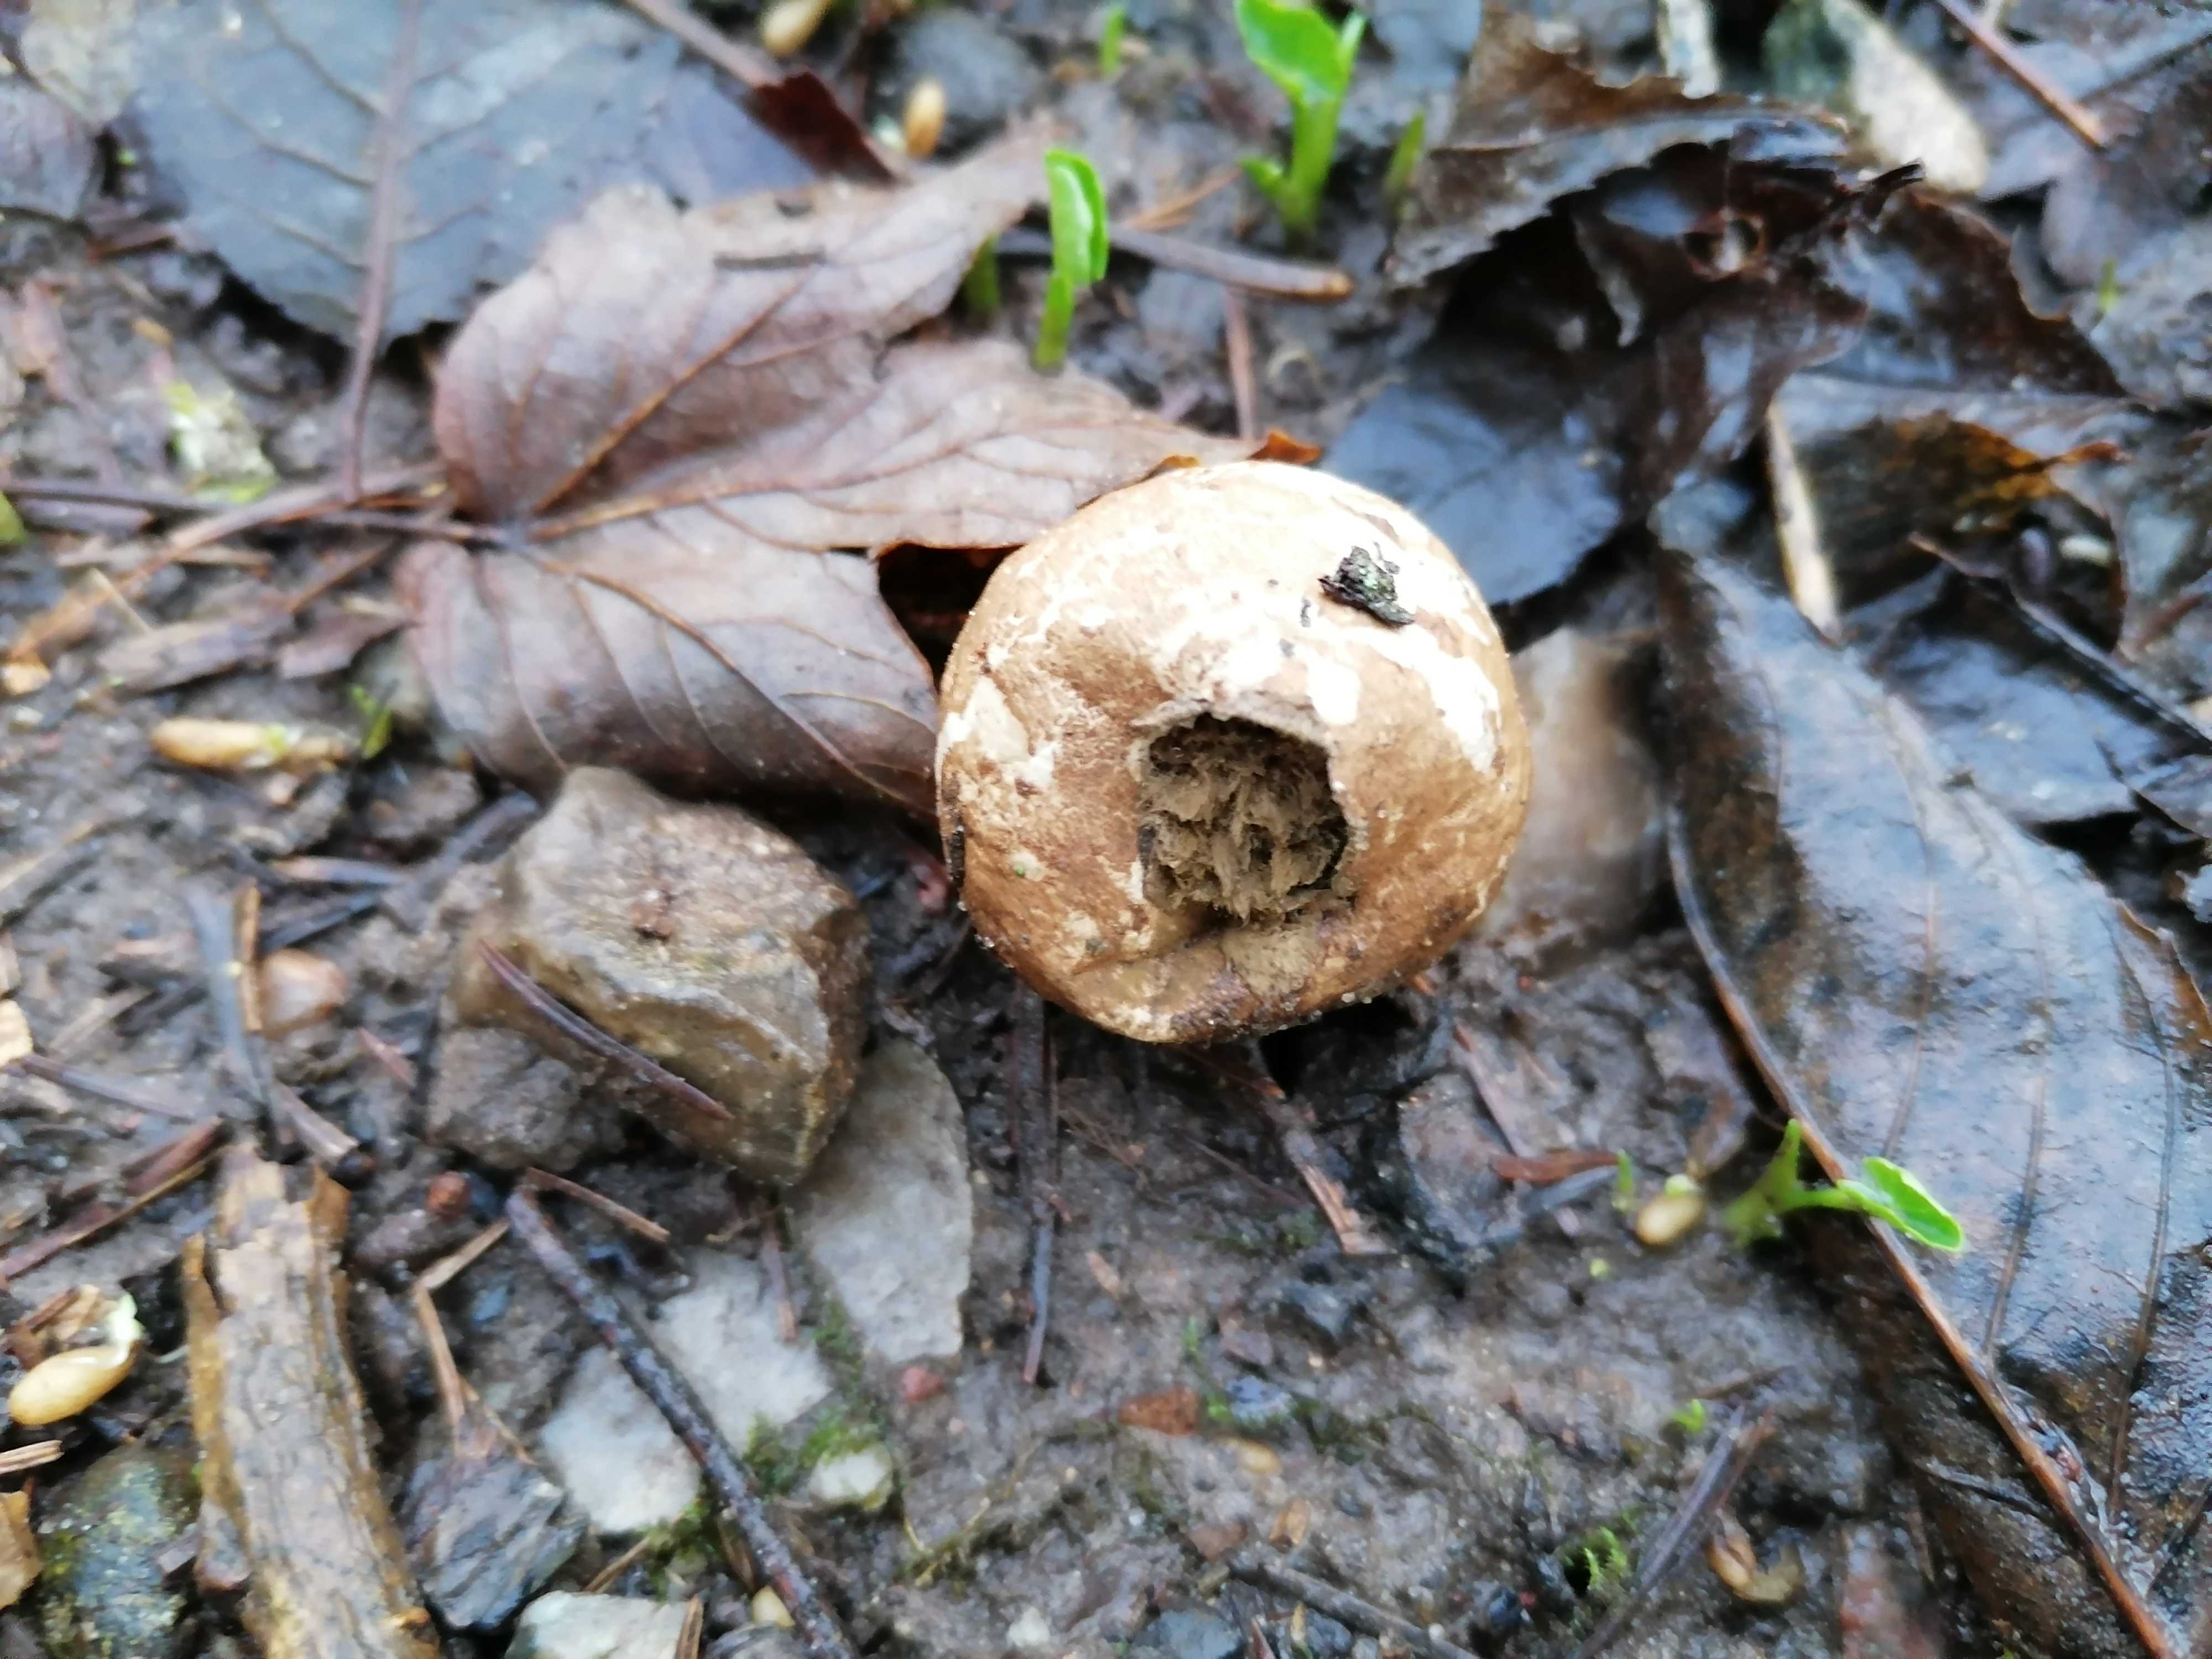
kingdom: Fungi
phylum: Basidiomycota
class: Agaricomycetes
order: Boletales
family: Sclerodermataceae
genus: Scleroderma
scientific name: Scleroderma
